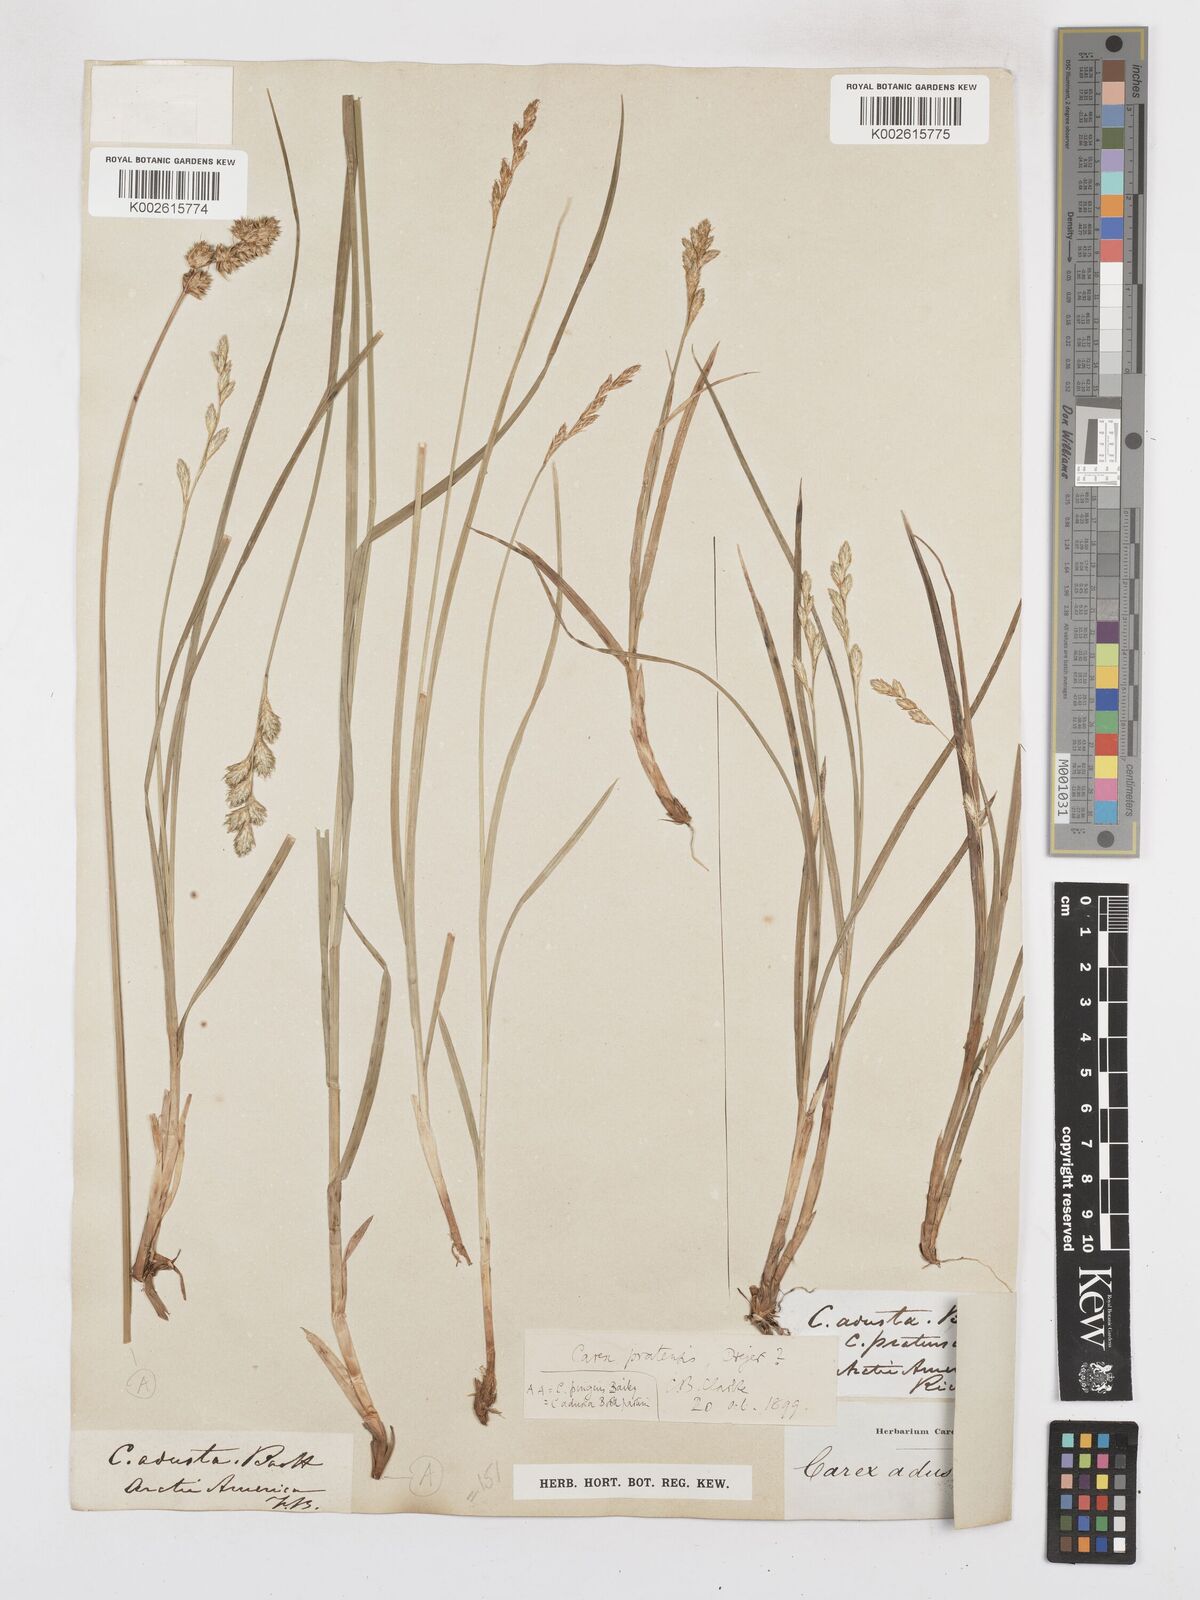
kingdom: Plantae
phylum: Tracheophyta
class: Liliopsida
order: Poales
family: Cyperaceae
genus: Carex
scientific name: Carex praticola
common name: Large-fruited oval sedge
